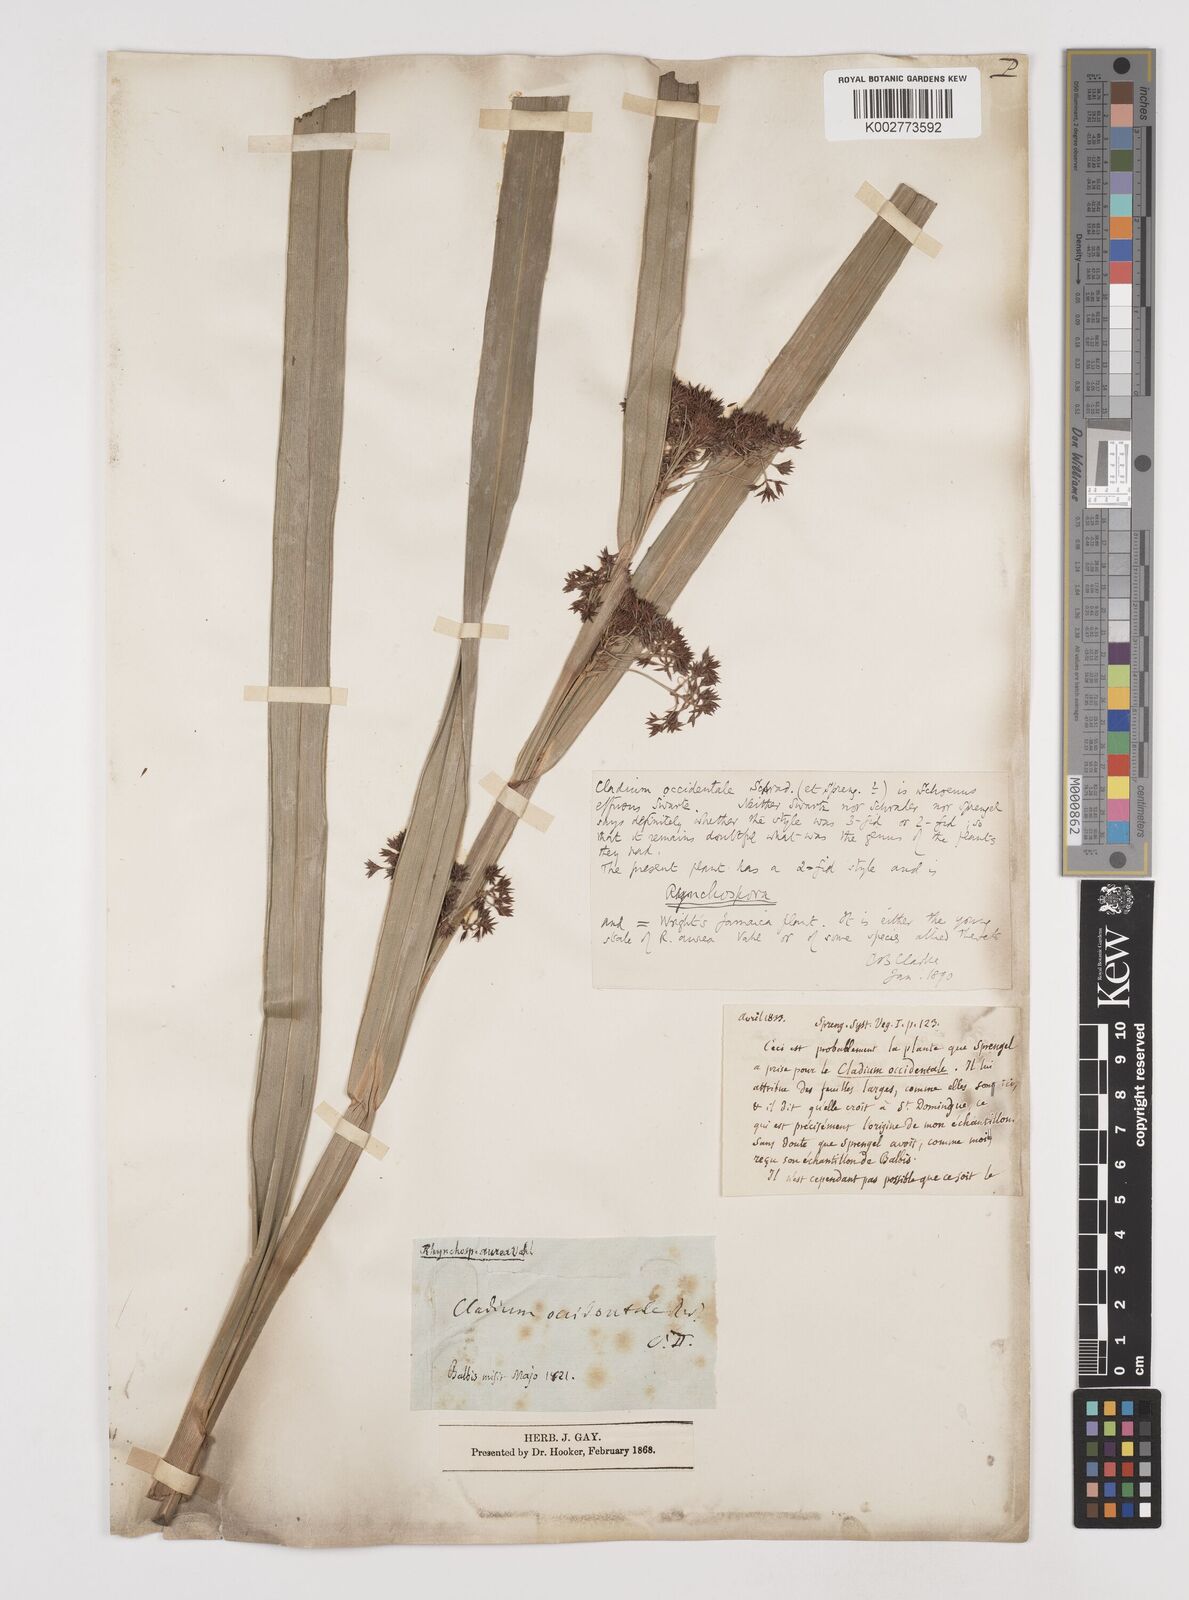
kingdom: Plantae
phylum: Tracheophyta
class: Liliopsida
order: Poales
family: Cyperaceae
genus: Rhynchospora
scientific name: Rhynchospora corymbosa
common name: Golden beak sedge
